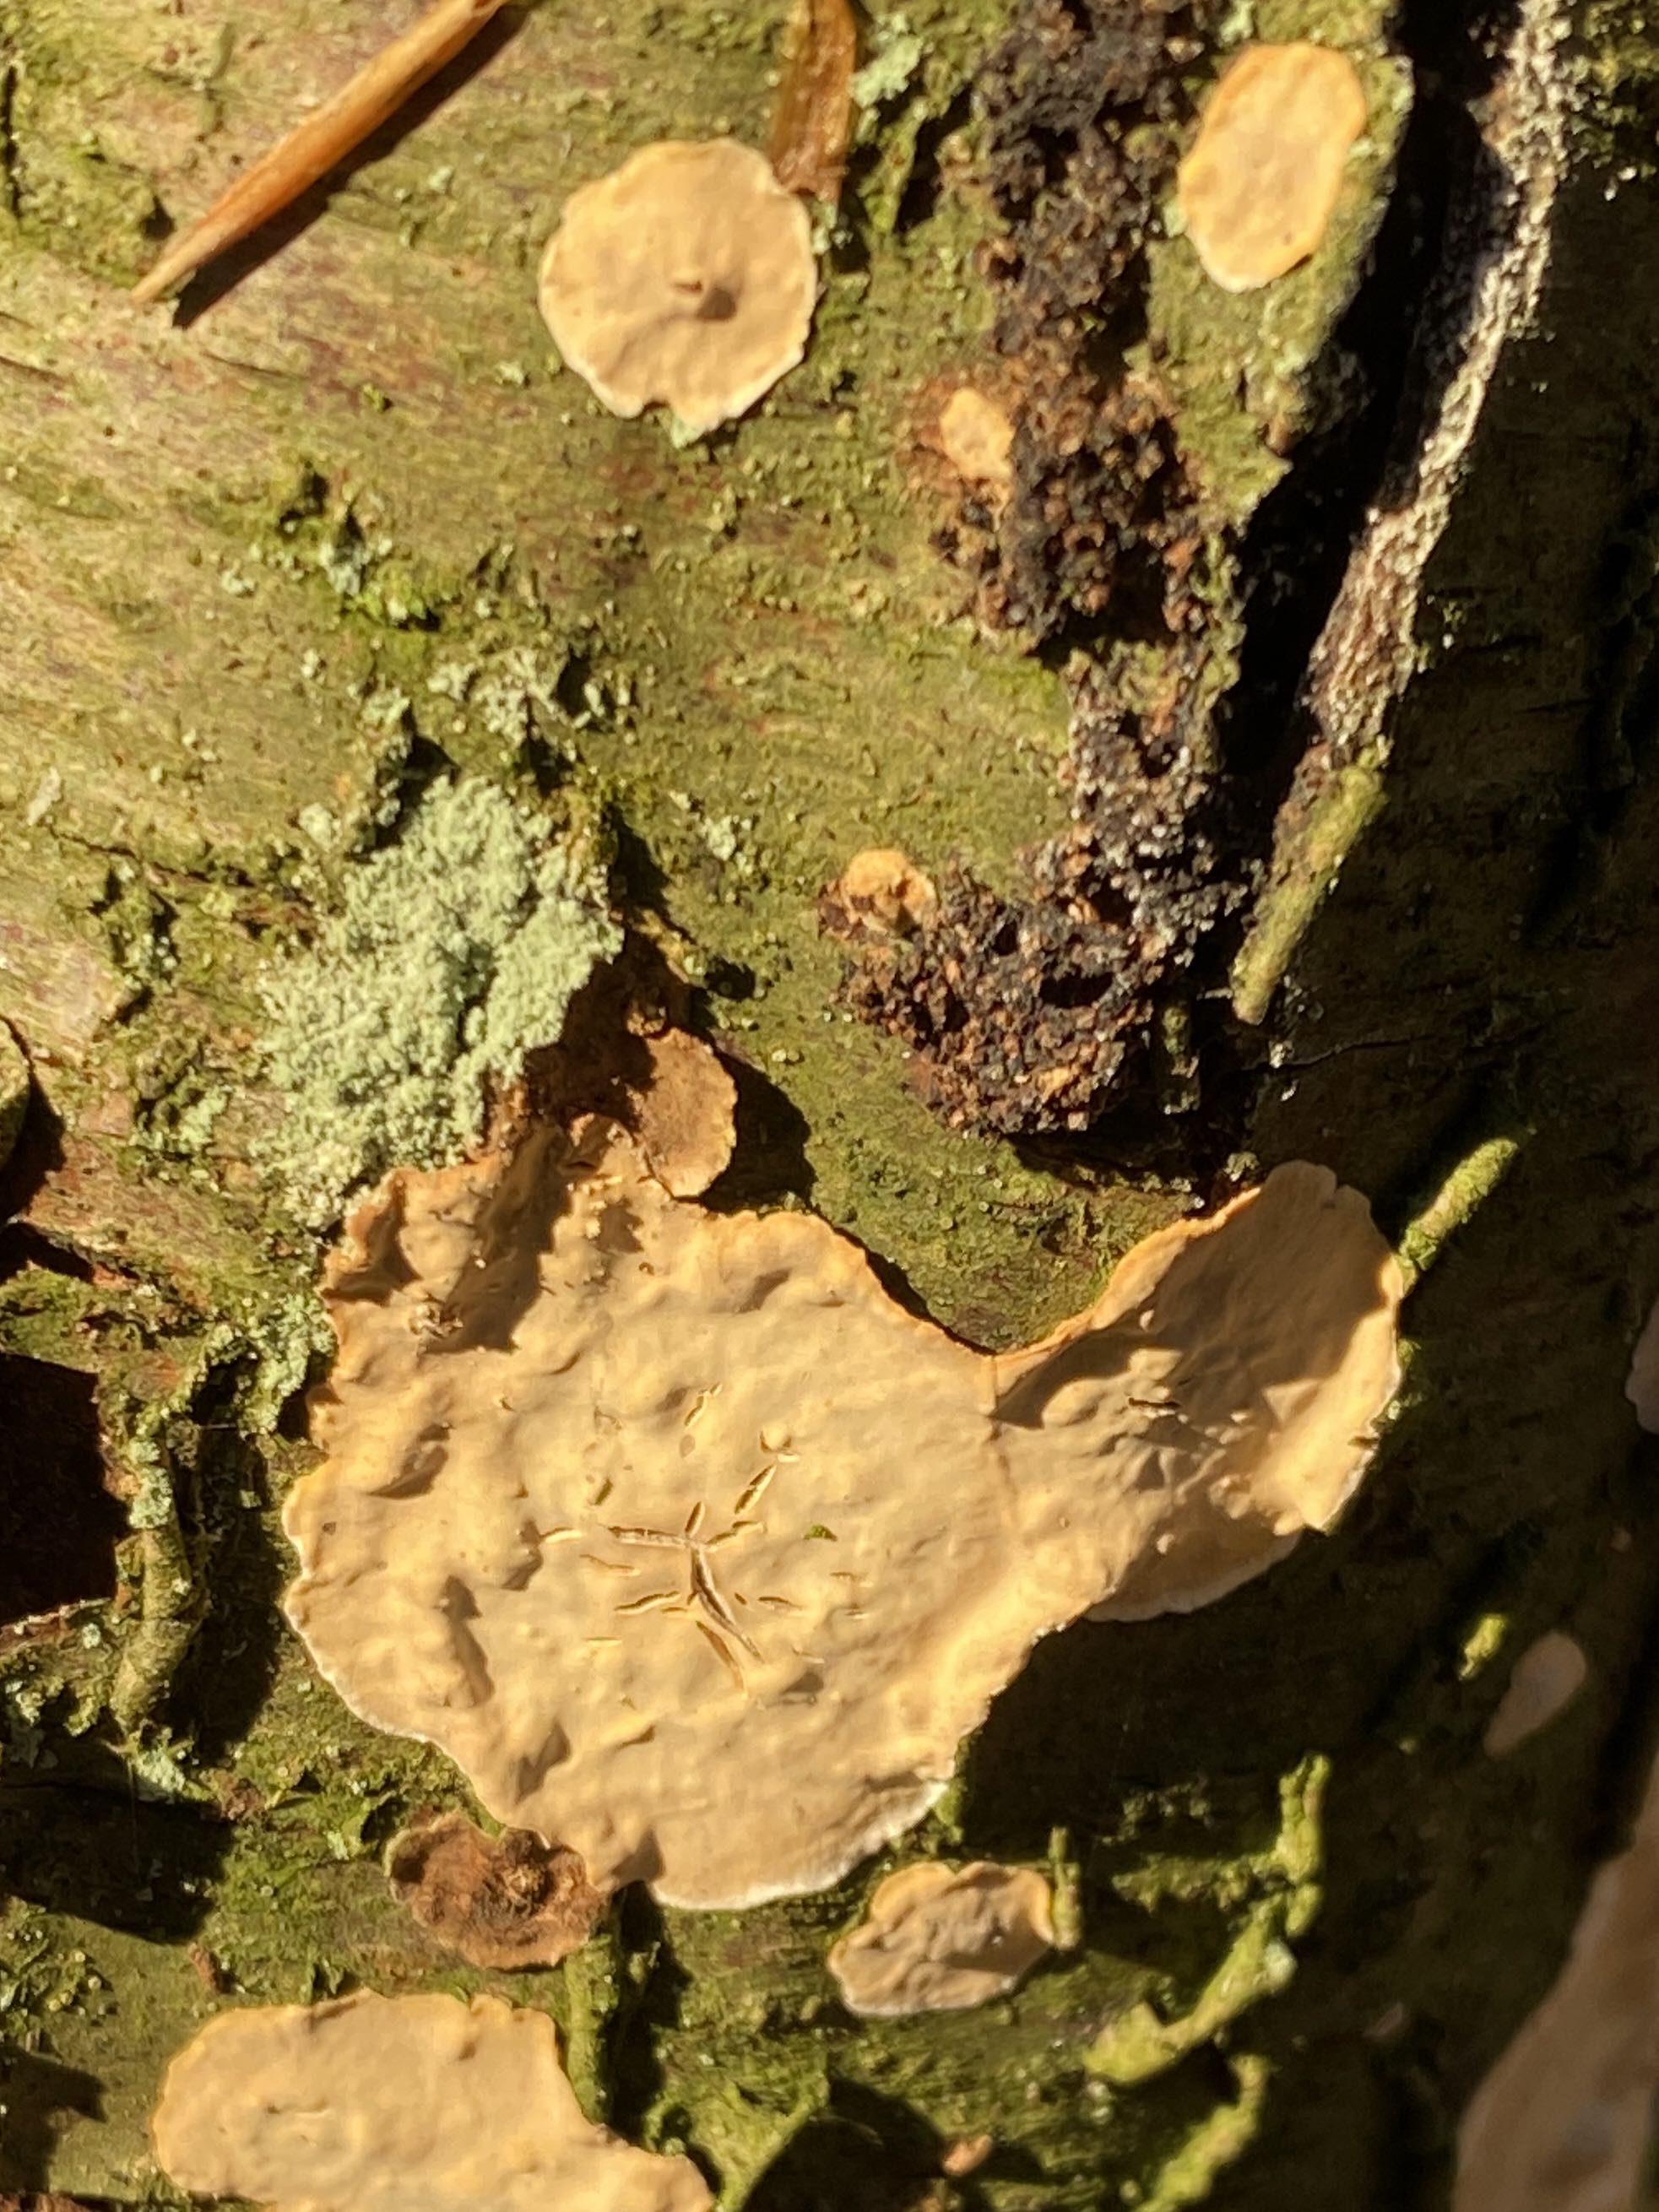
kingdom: Fungi
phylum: Basidiomycota
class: Agaricomycetes
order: Russulales
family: Stereaceae
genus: Stereum
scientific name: Stereum rugosum
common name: rynket lædersvamp
